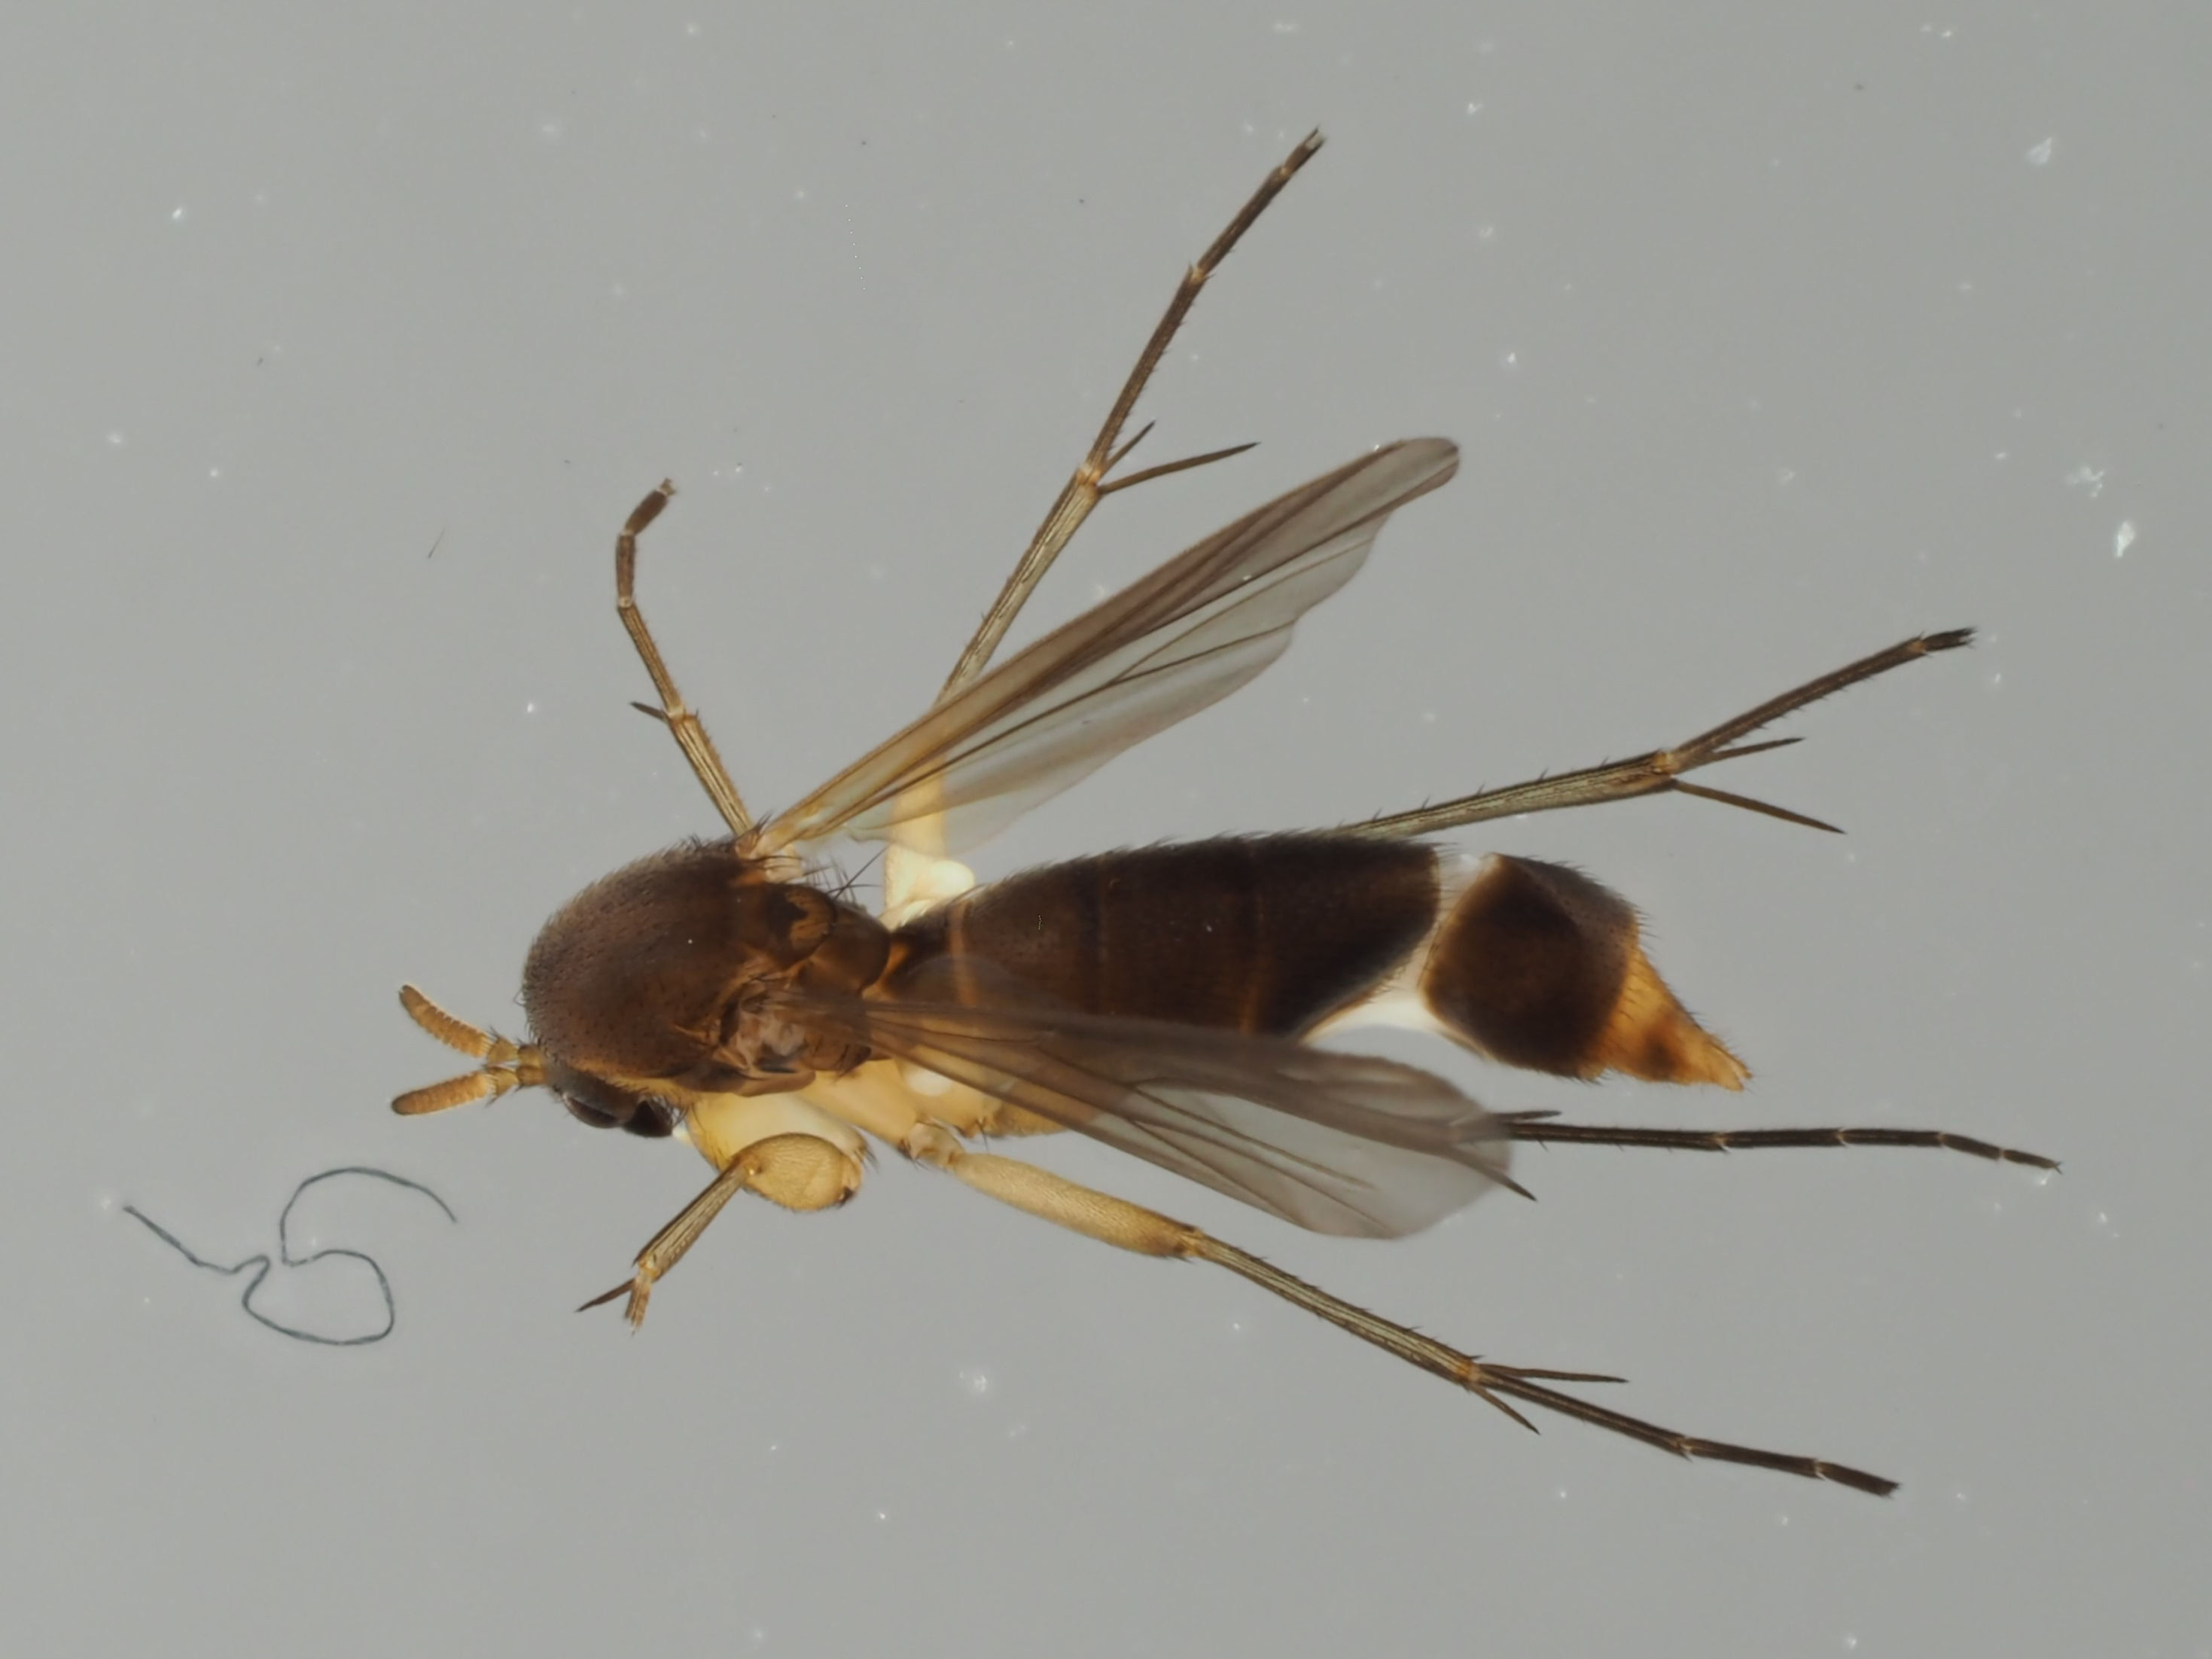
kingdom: Animalia
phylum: Arthropoda
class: Insecta
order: Diptera
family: Mycetophilidae
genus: Cordyla
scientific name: Cordyla semiflava
